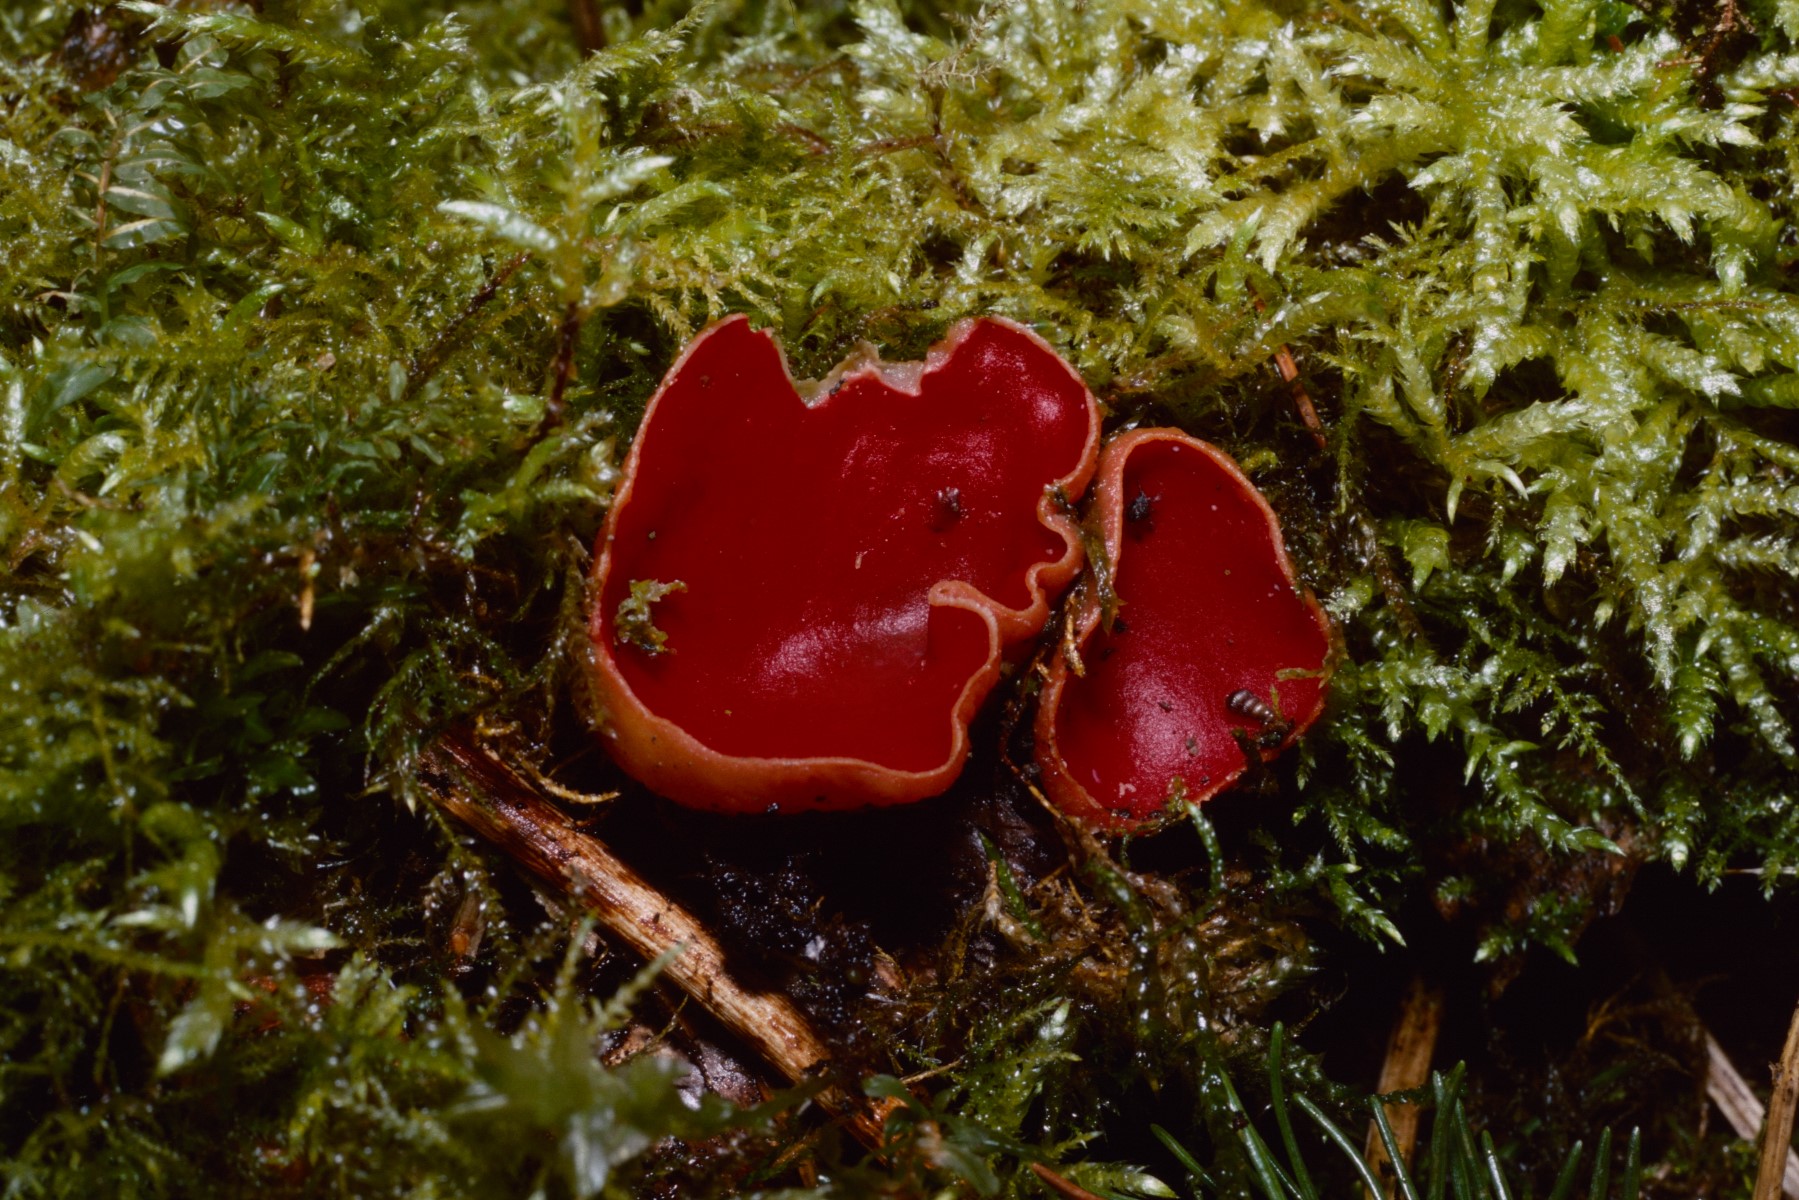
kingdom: Fungi
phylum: Ascomycota
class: Pezizomycetes
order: Pezizales
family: Sarcoscyphaceae
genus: Sarcoscypha
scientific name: Sarcoscypha austriaca
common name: krølhåret pragtbæger
